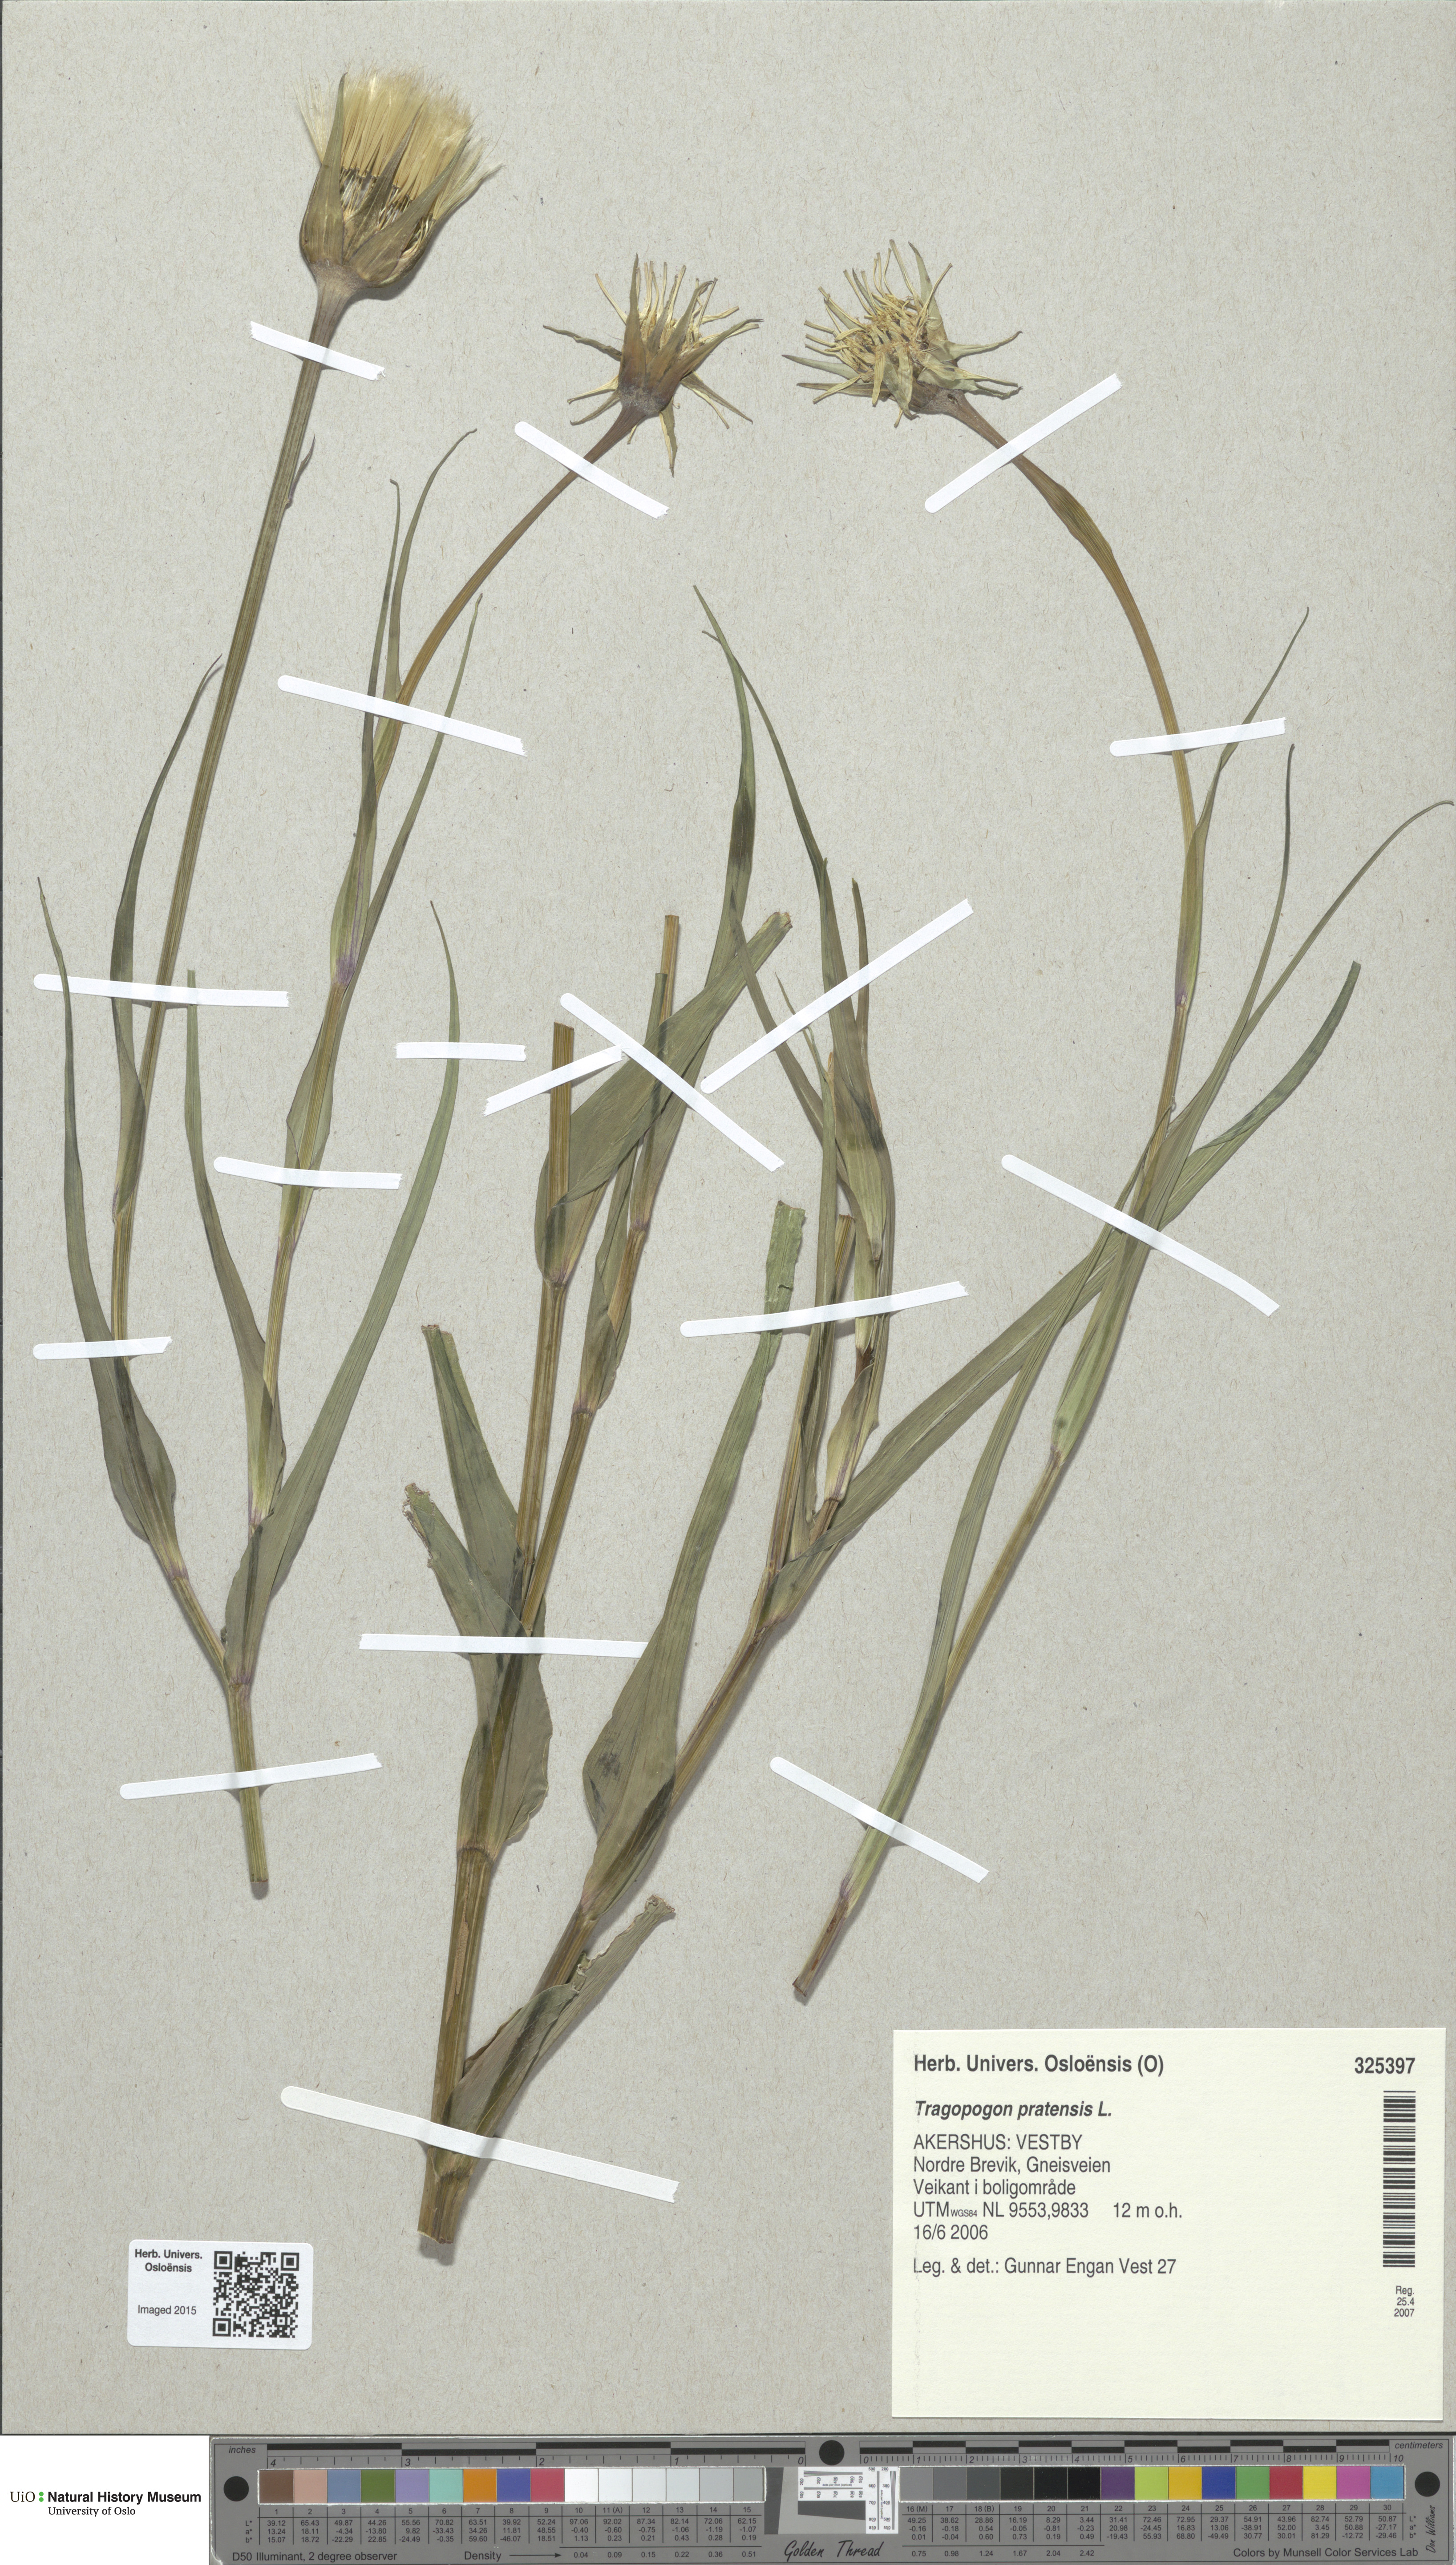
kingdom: Plantae
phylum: Tracheophyta
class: Magnoliopsida
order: Asterales
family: Asteraceae
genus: Tragopogon
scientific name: Tragopogon pratensis
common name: Goat's-beard
